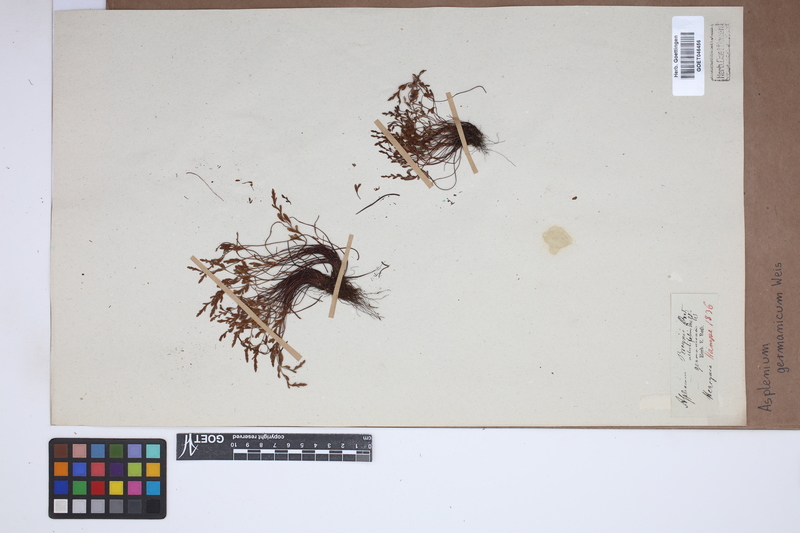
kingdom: Plantae
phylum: Tracheophyta
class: Polypodiopsida
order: Polypodiales
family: Aspleniaceae
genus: Asplenium
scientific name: Asplenium
